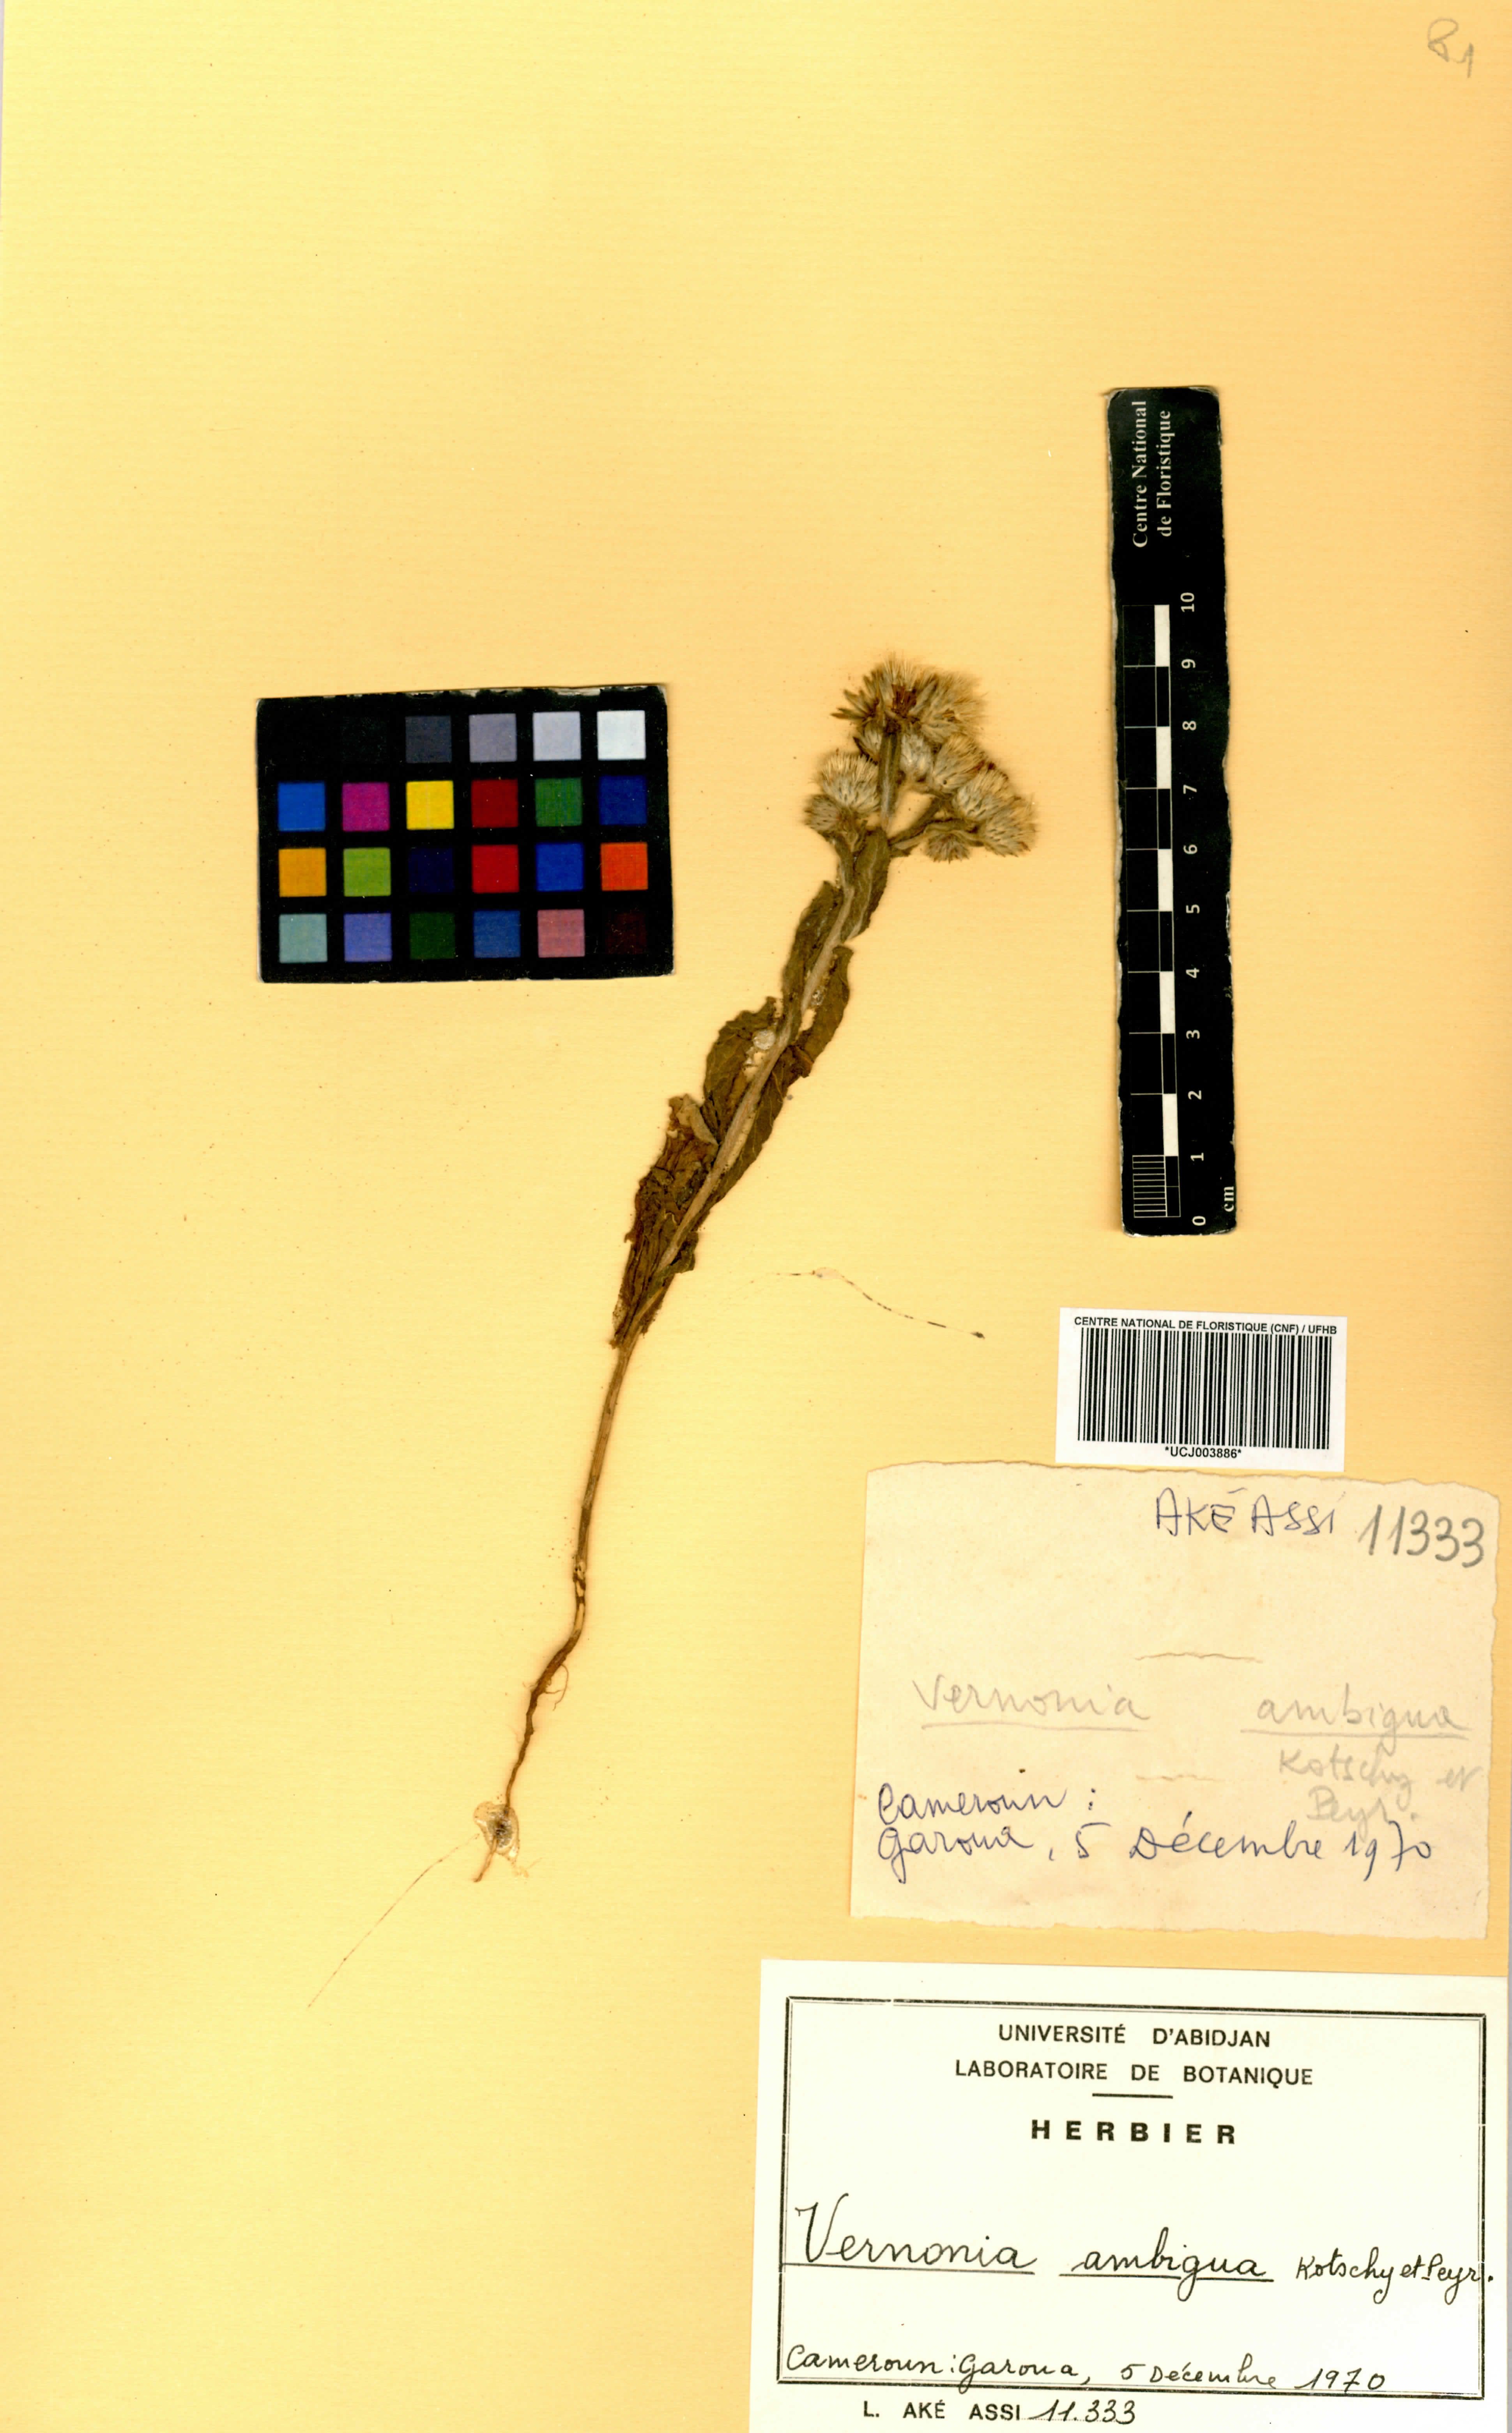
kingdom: Plantae
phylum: Tracheophyta
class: Magnoliopsida
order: Asterales
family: Asteraceae
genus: Vernoniastrum
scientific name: Vernoniastrum ambiguum
